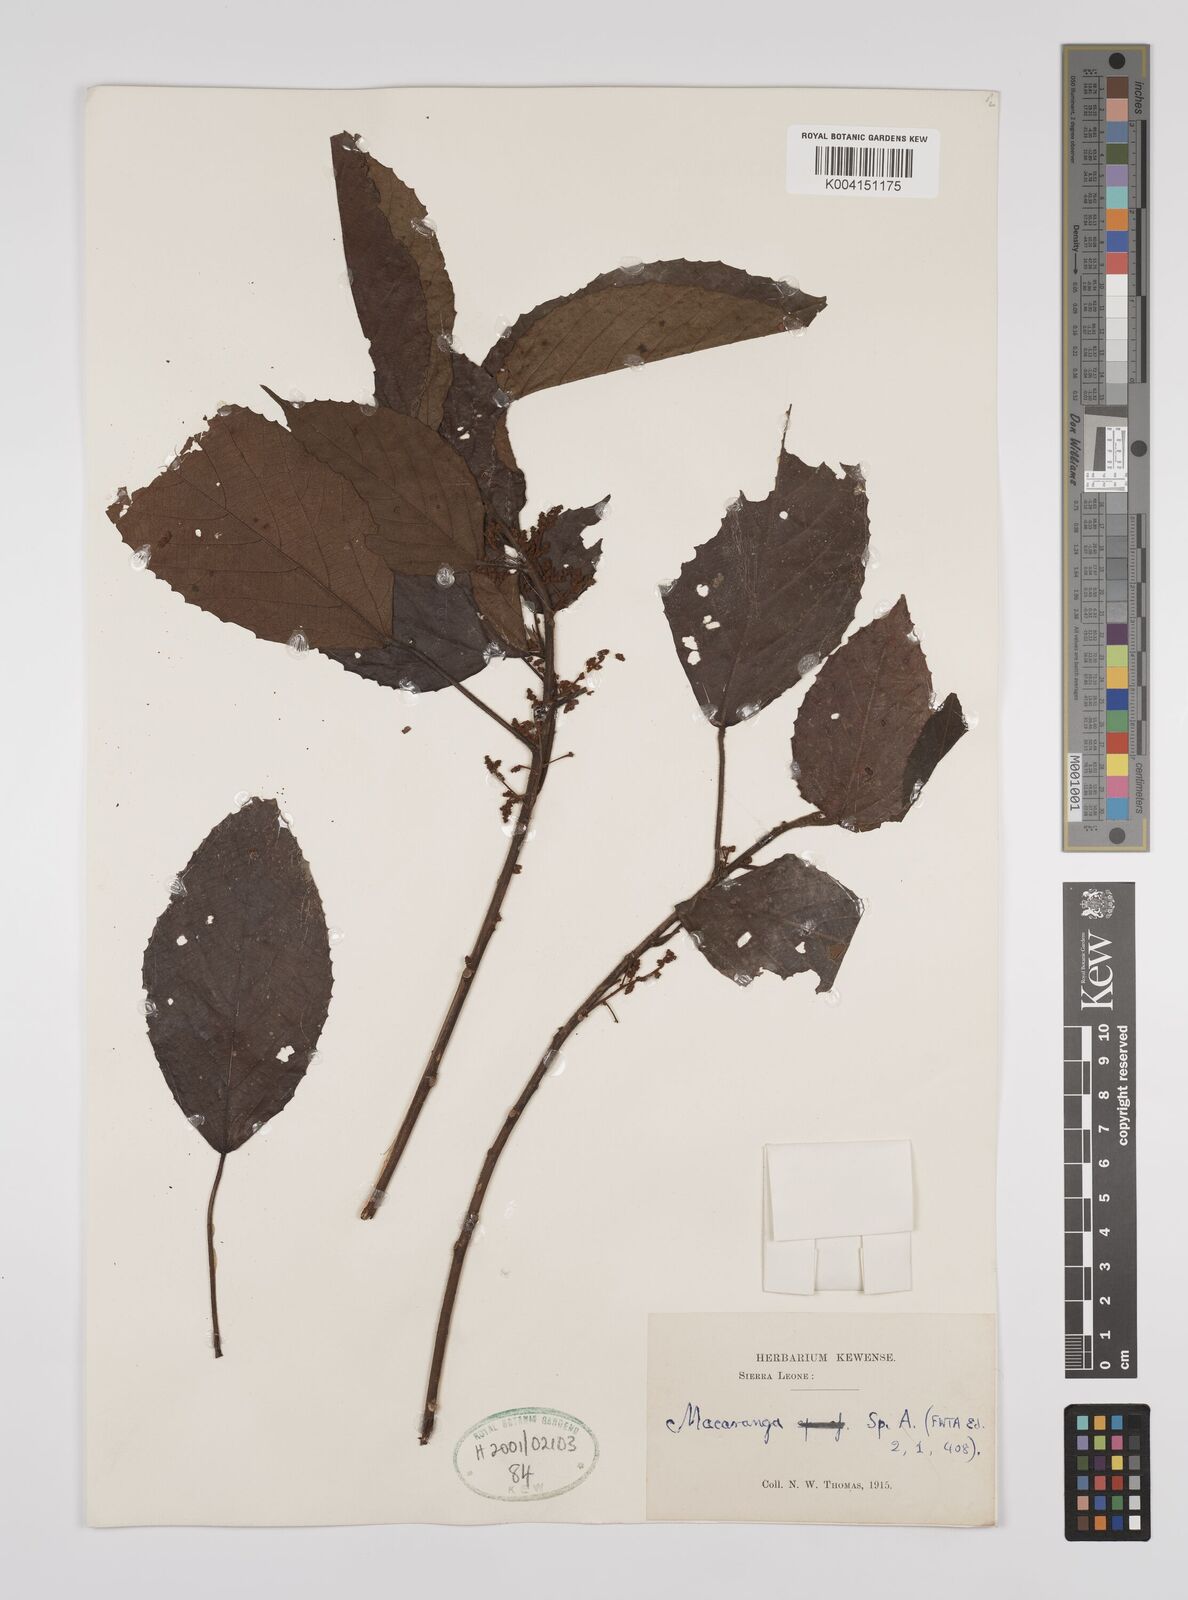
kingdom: Plantae
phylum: Tracheophyta
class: Magnoliopsida
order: Malpighiales
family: Euphorbiaceae
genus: Macaranga
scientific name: Macaranga
